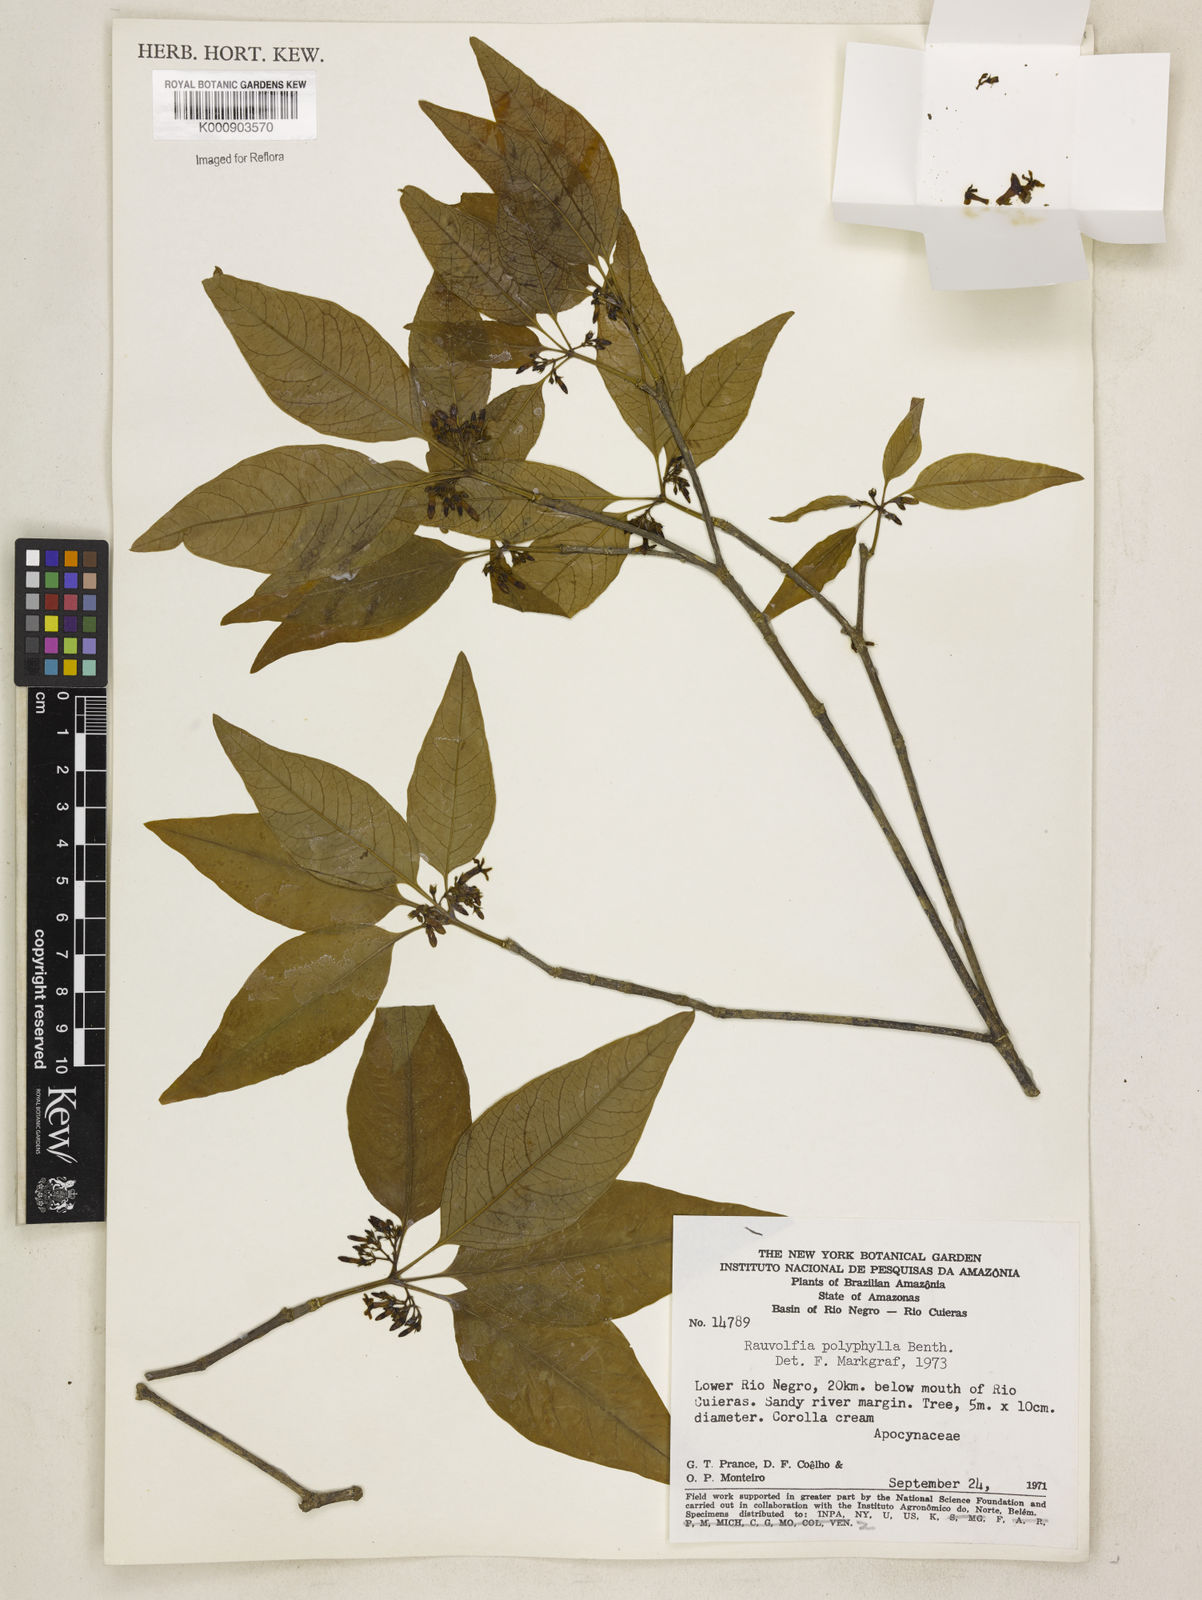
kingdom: Plantae
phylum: Tracheophyta
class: Magnoliopsida
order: Gentianales
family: Apocynaceae
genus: Rauvolfia
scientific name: Rauvolfia polyphylla
